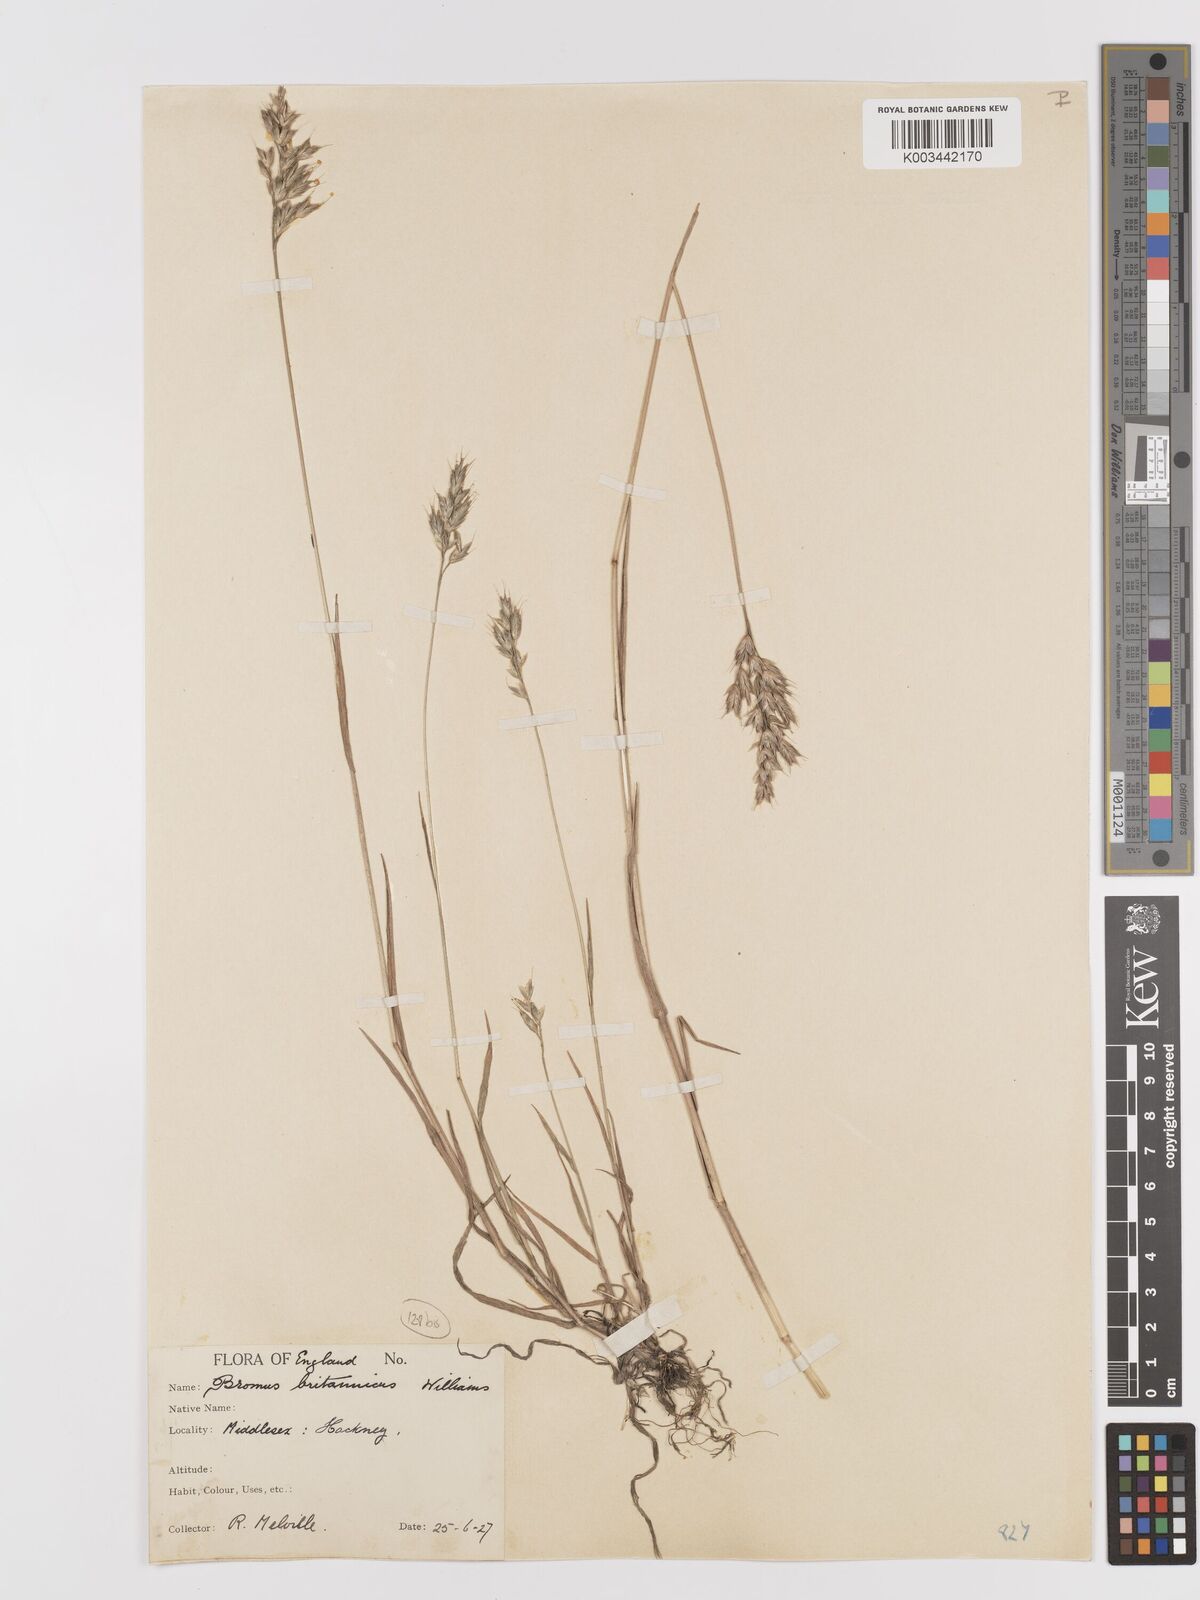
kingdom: Plantae
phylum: Tracheophyta
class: Liliopsida
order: Poales
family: Poaceae
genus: Bromus
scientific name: Bromus lepidus
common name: Slender soft-brome
